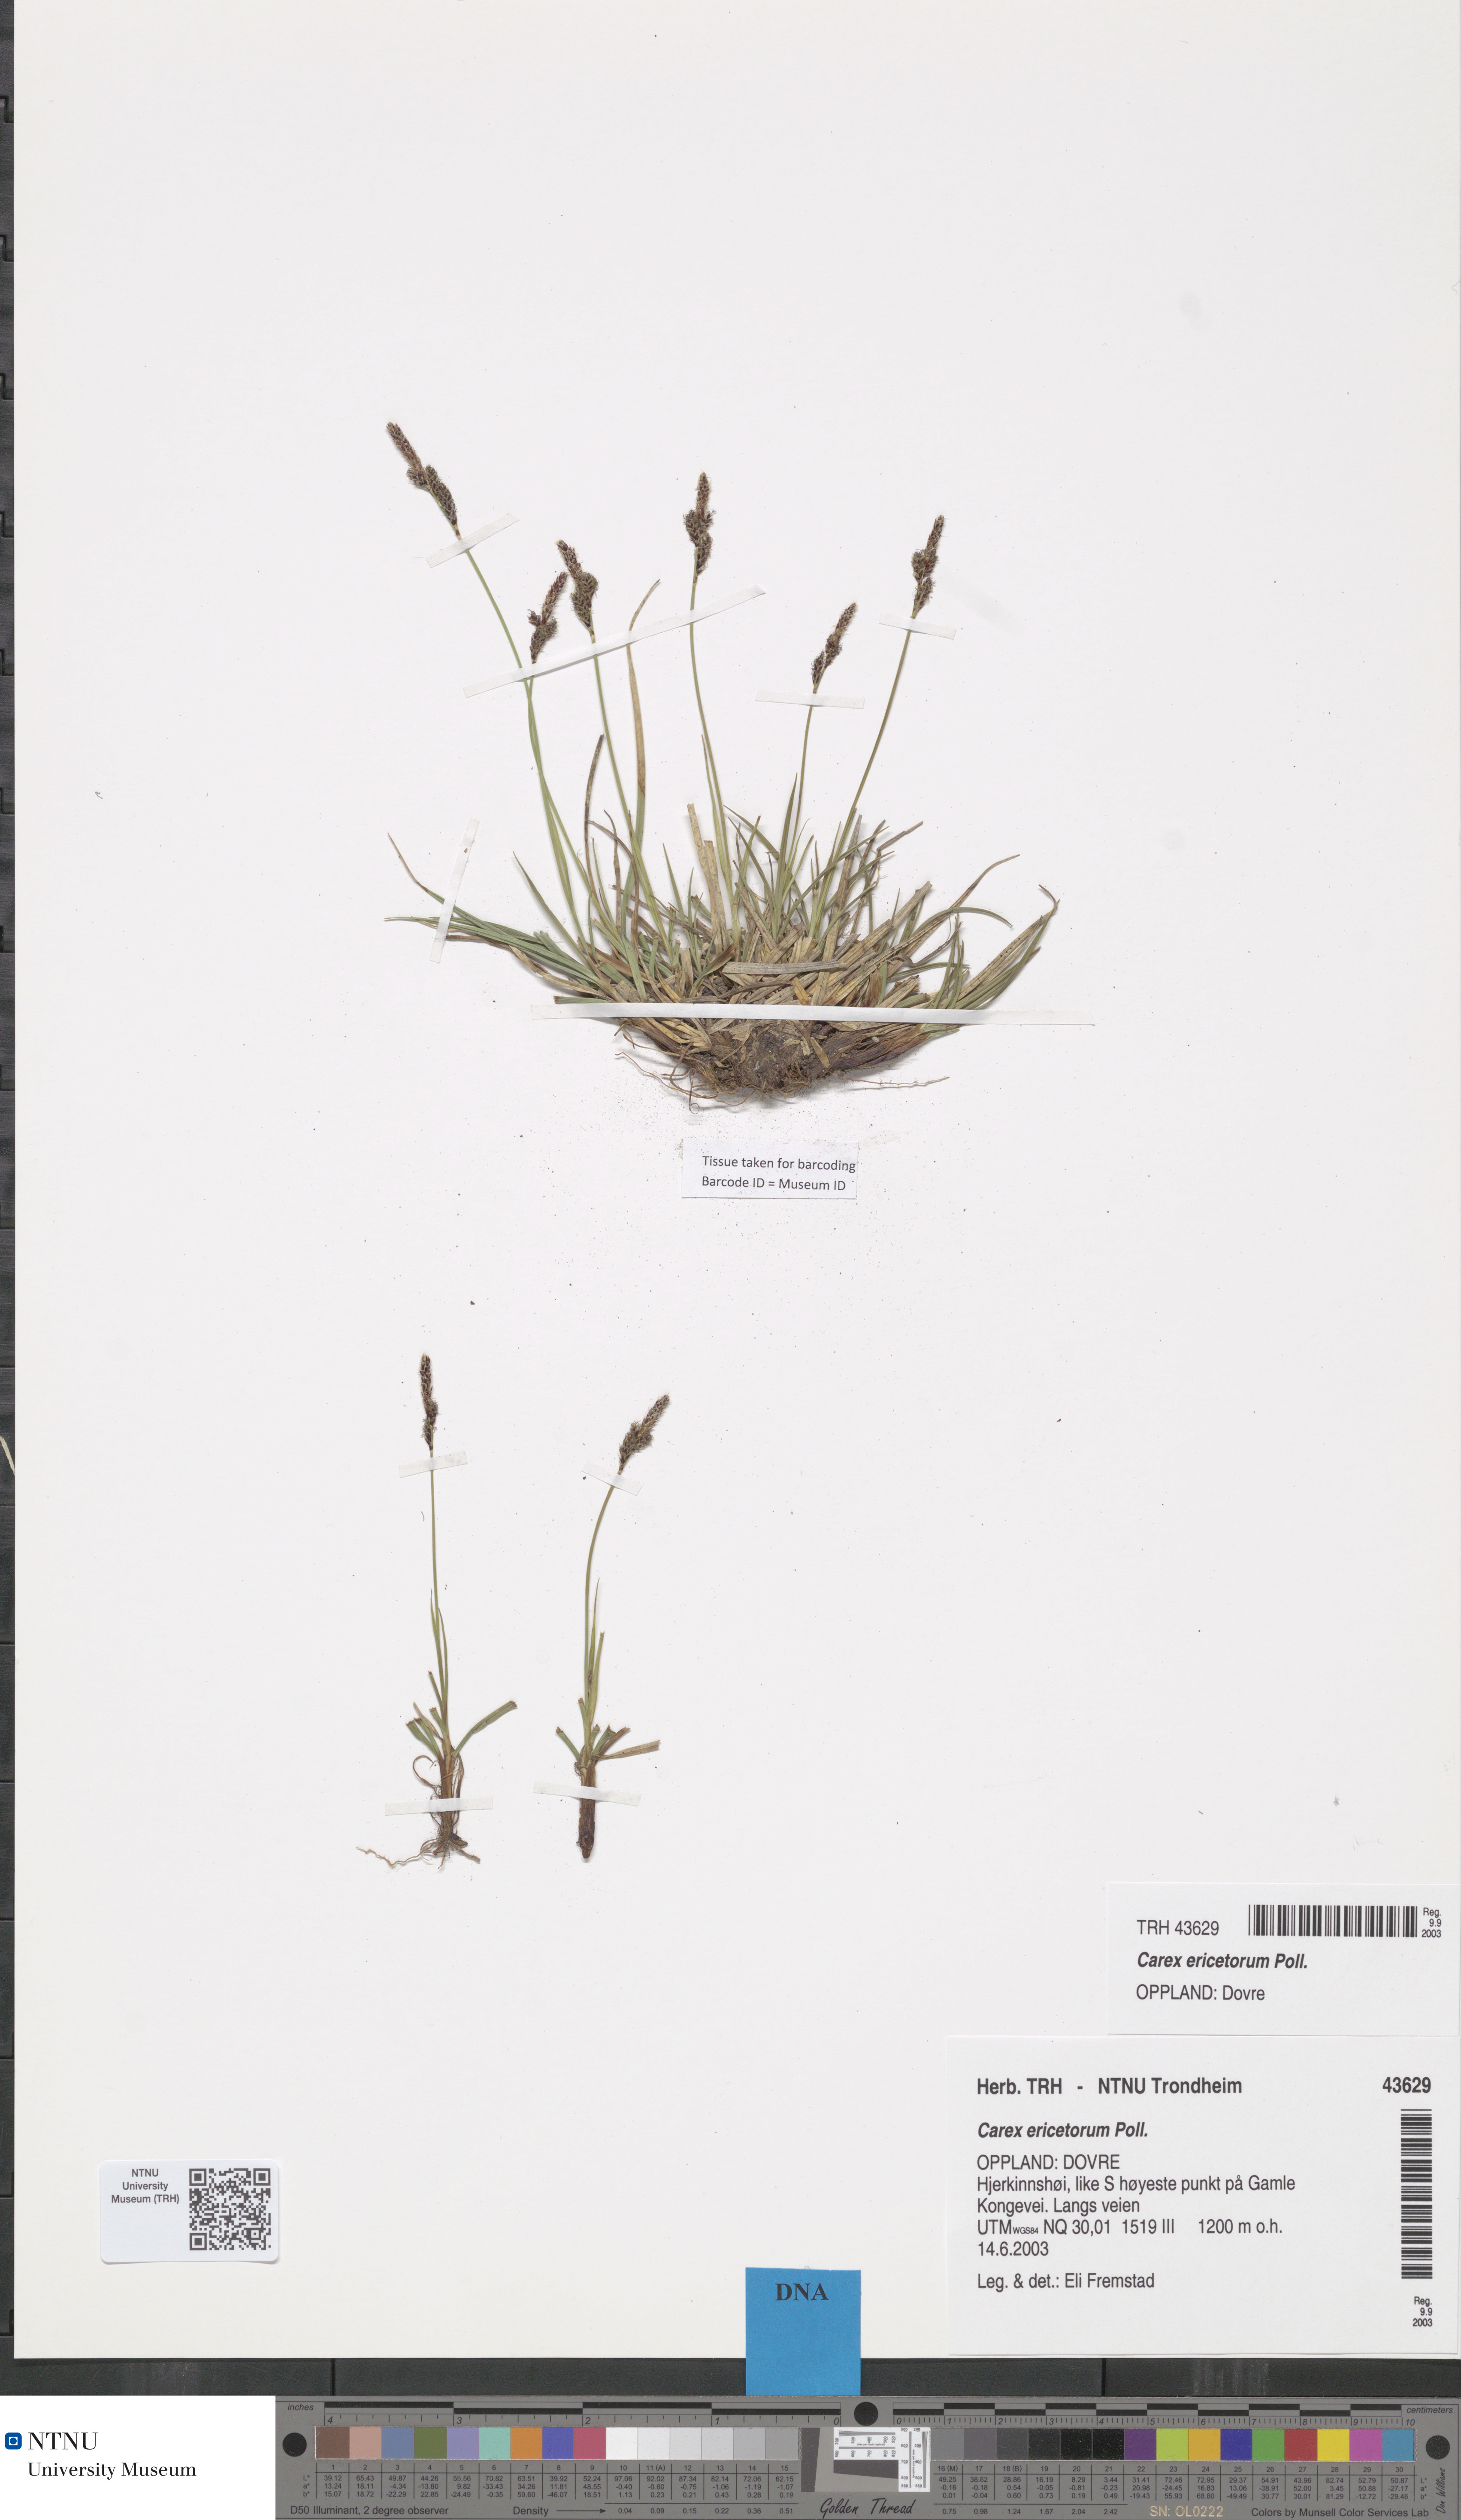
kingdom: Plantae
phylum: Tracheophyta
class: Liliopsida
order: Poales
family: Cyperaceae
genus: Carex
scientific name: Carex ericetorum
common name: Rare spring-sedge
